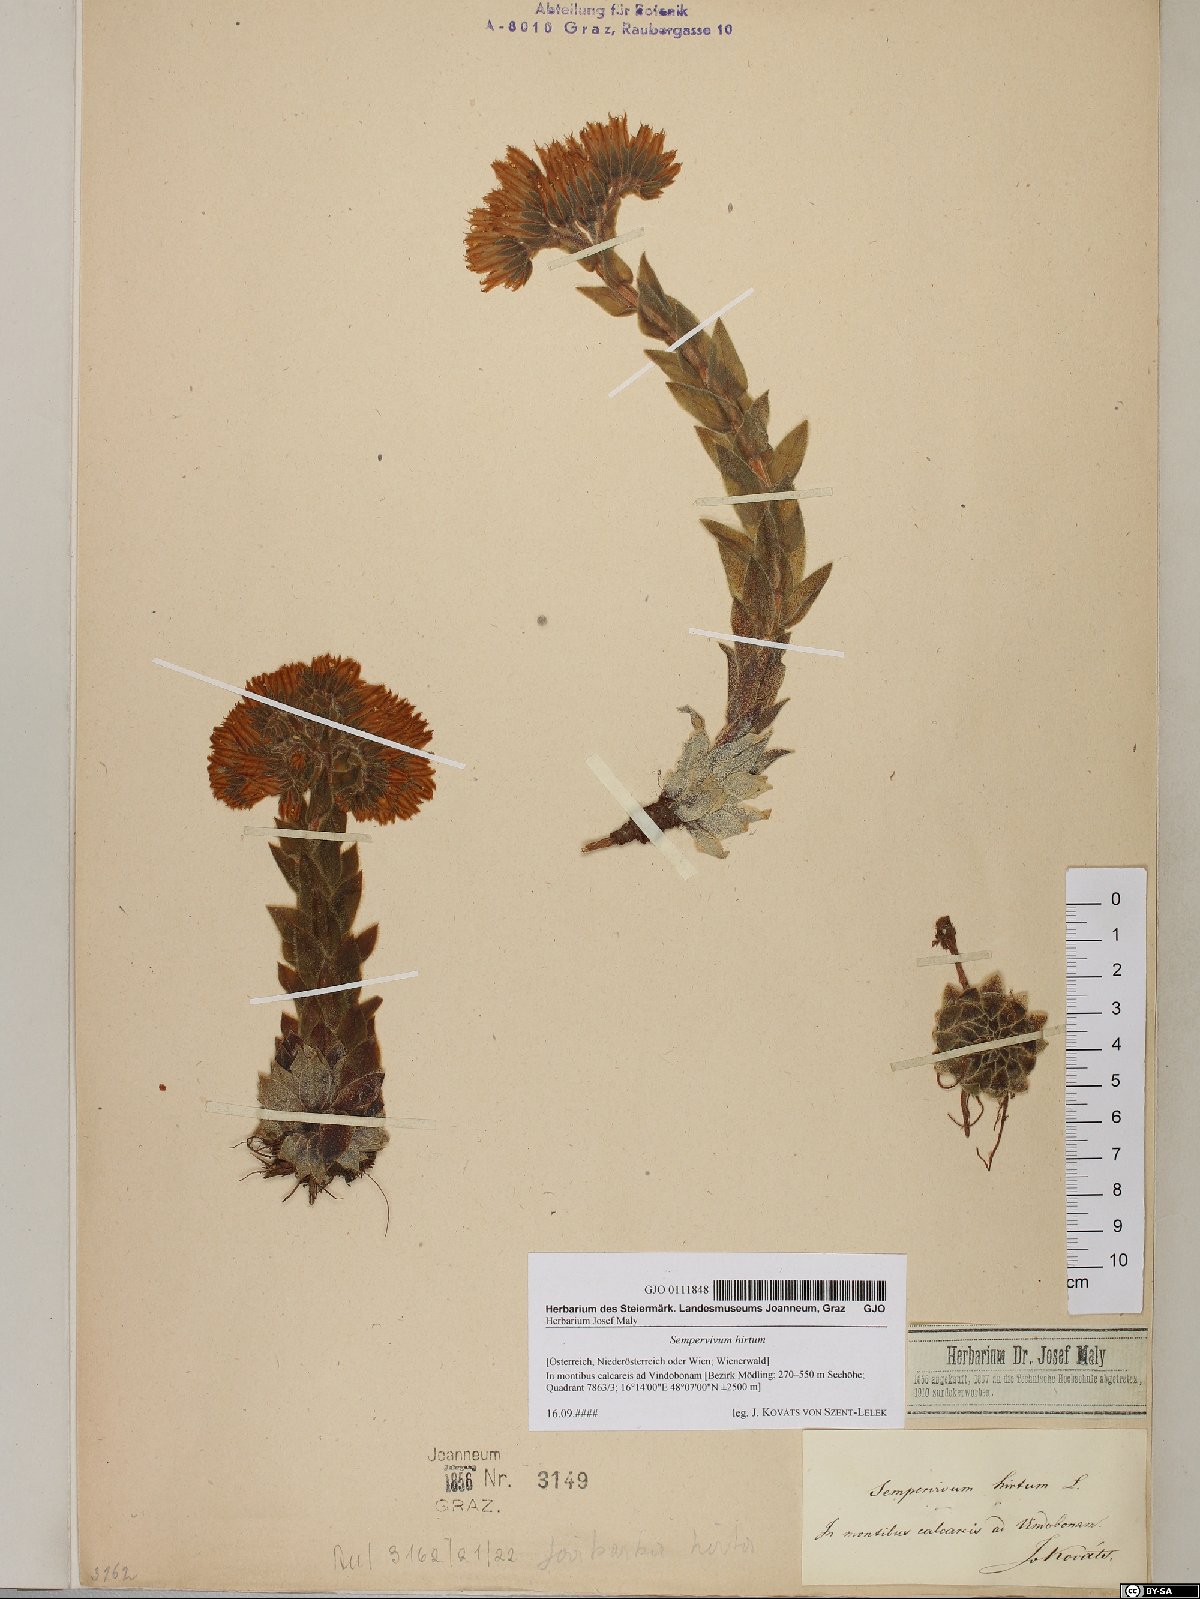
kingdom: Plantae
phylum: Tracheophyta
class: Magnoliopsida
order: Saxifragales
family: Crassulaceae
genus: Sempervivum
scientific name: Sempervivum globiferum
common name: Rolling hen-and-chicks
